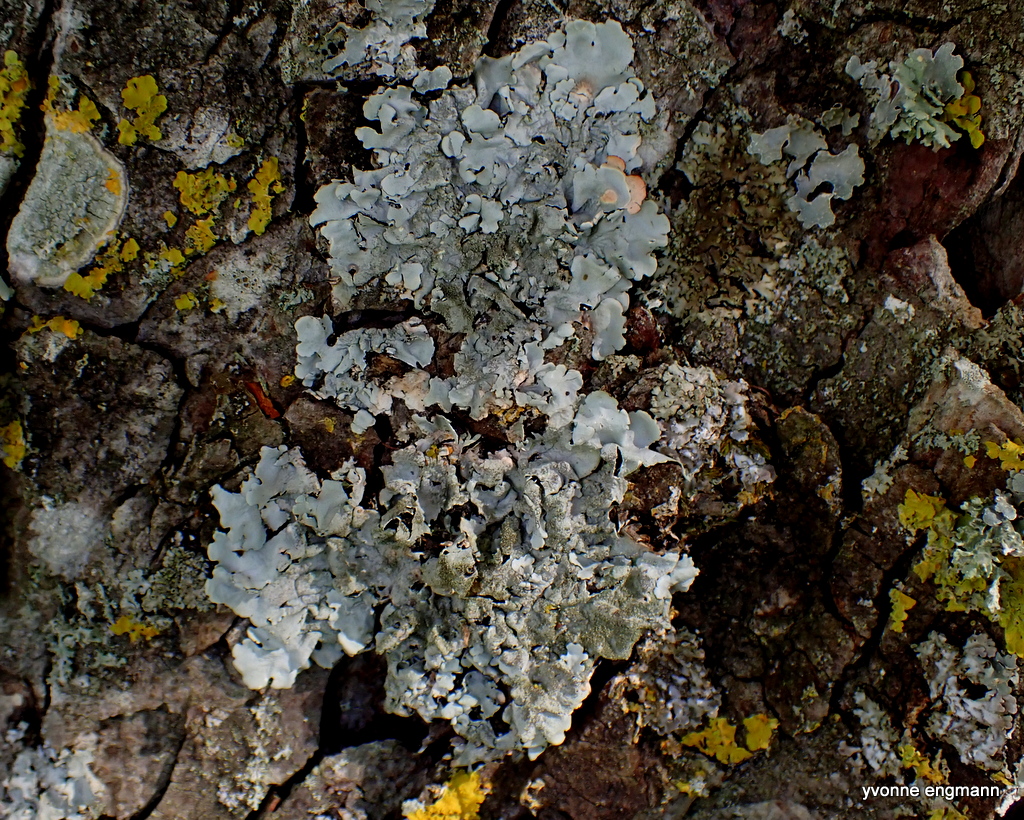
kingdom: Fungi
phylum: Ascomycota
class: Lecanoromycetes
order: Lecanorales
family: Parmeliaceae
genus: Parmelia
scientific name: Parmelia sulcata
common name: rynket skållav
